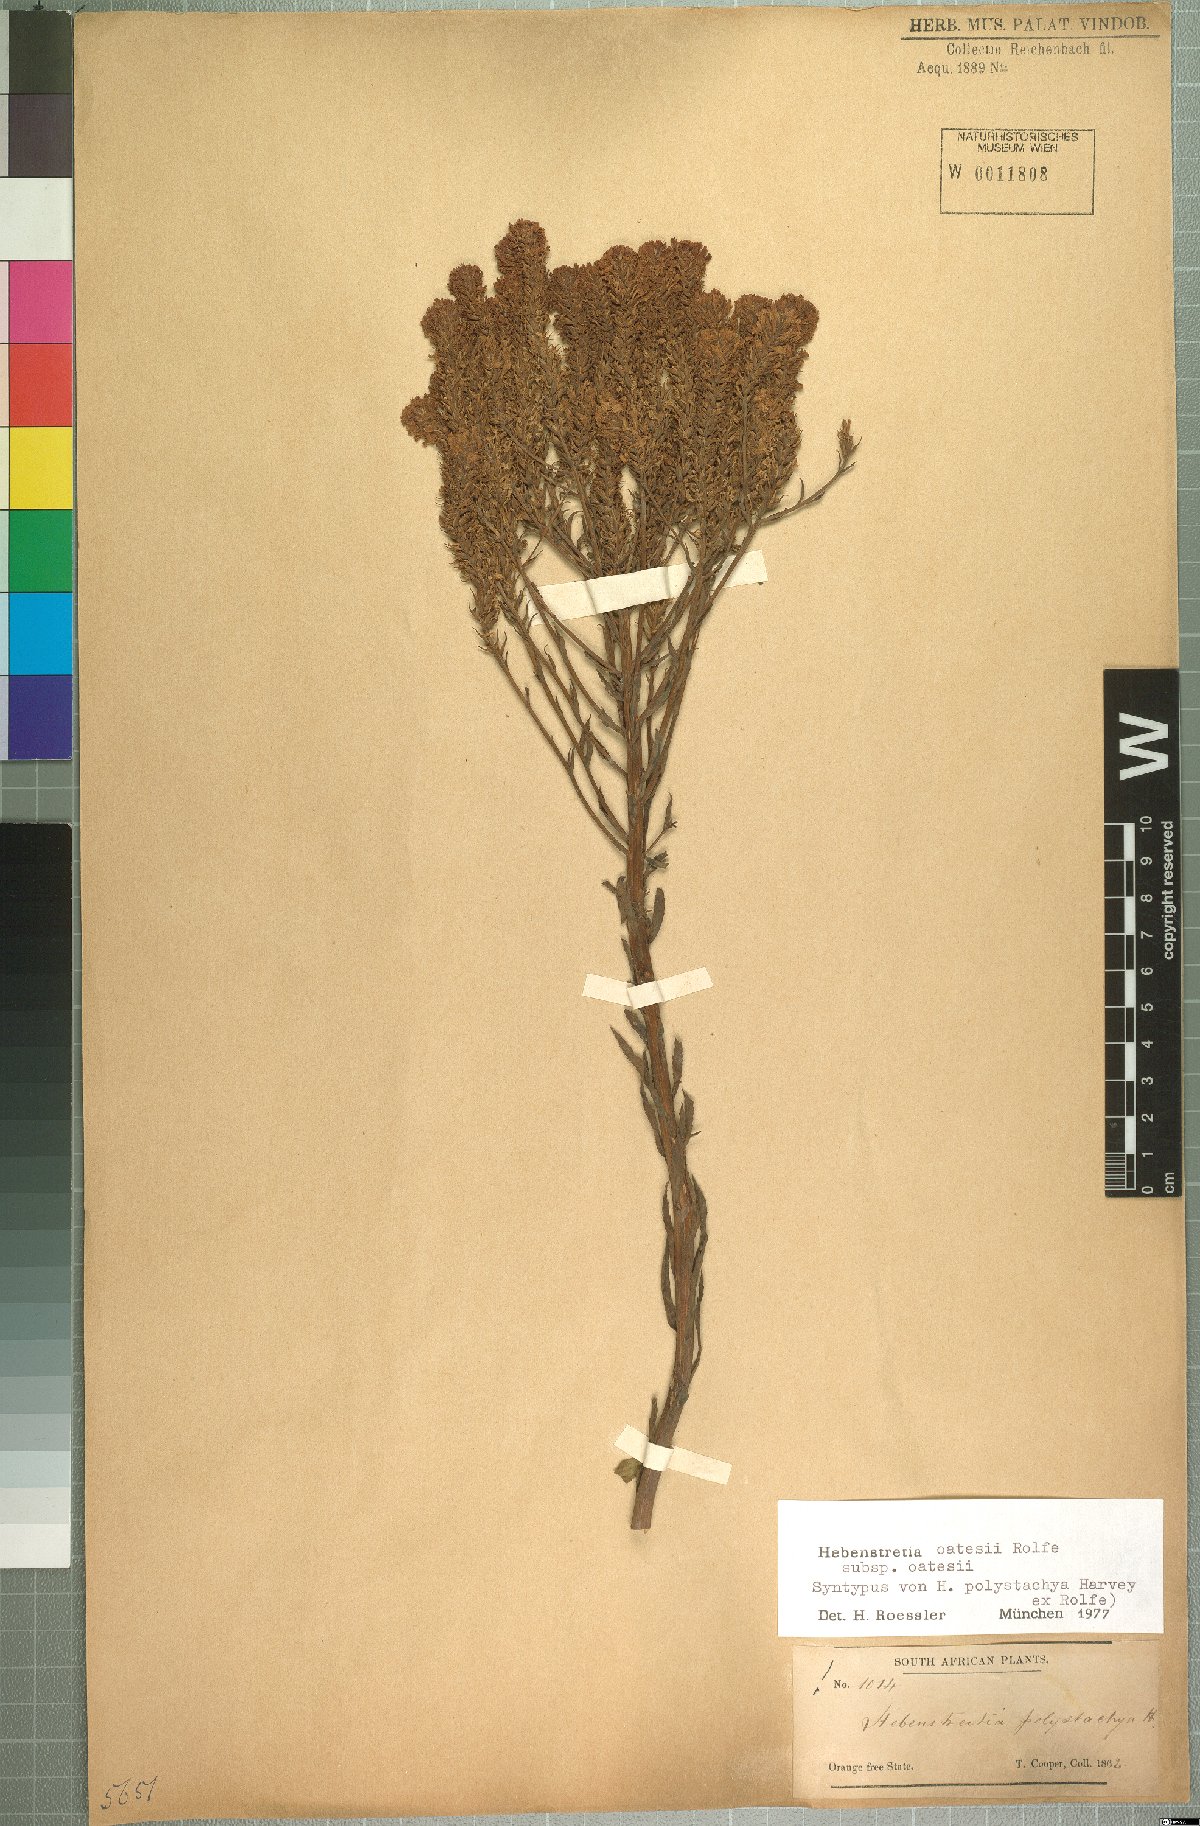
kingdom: Plantae
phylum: Tracheophyta
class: Magnoliopsida
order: Lamiales
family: Scrophulariaceae
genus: Hebenstretia
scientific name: Hebenstretia oatesii
